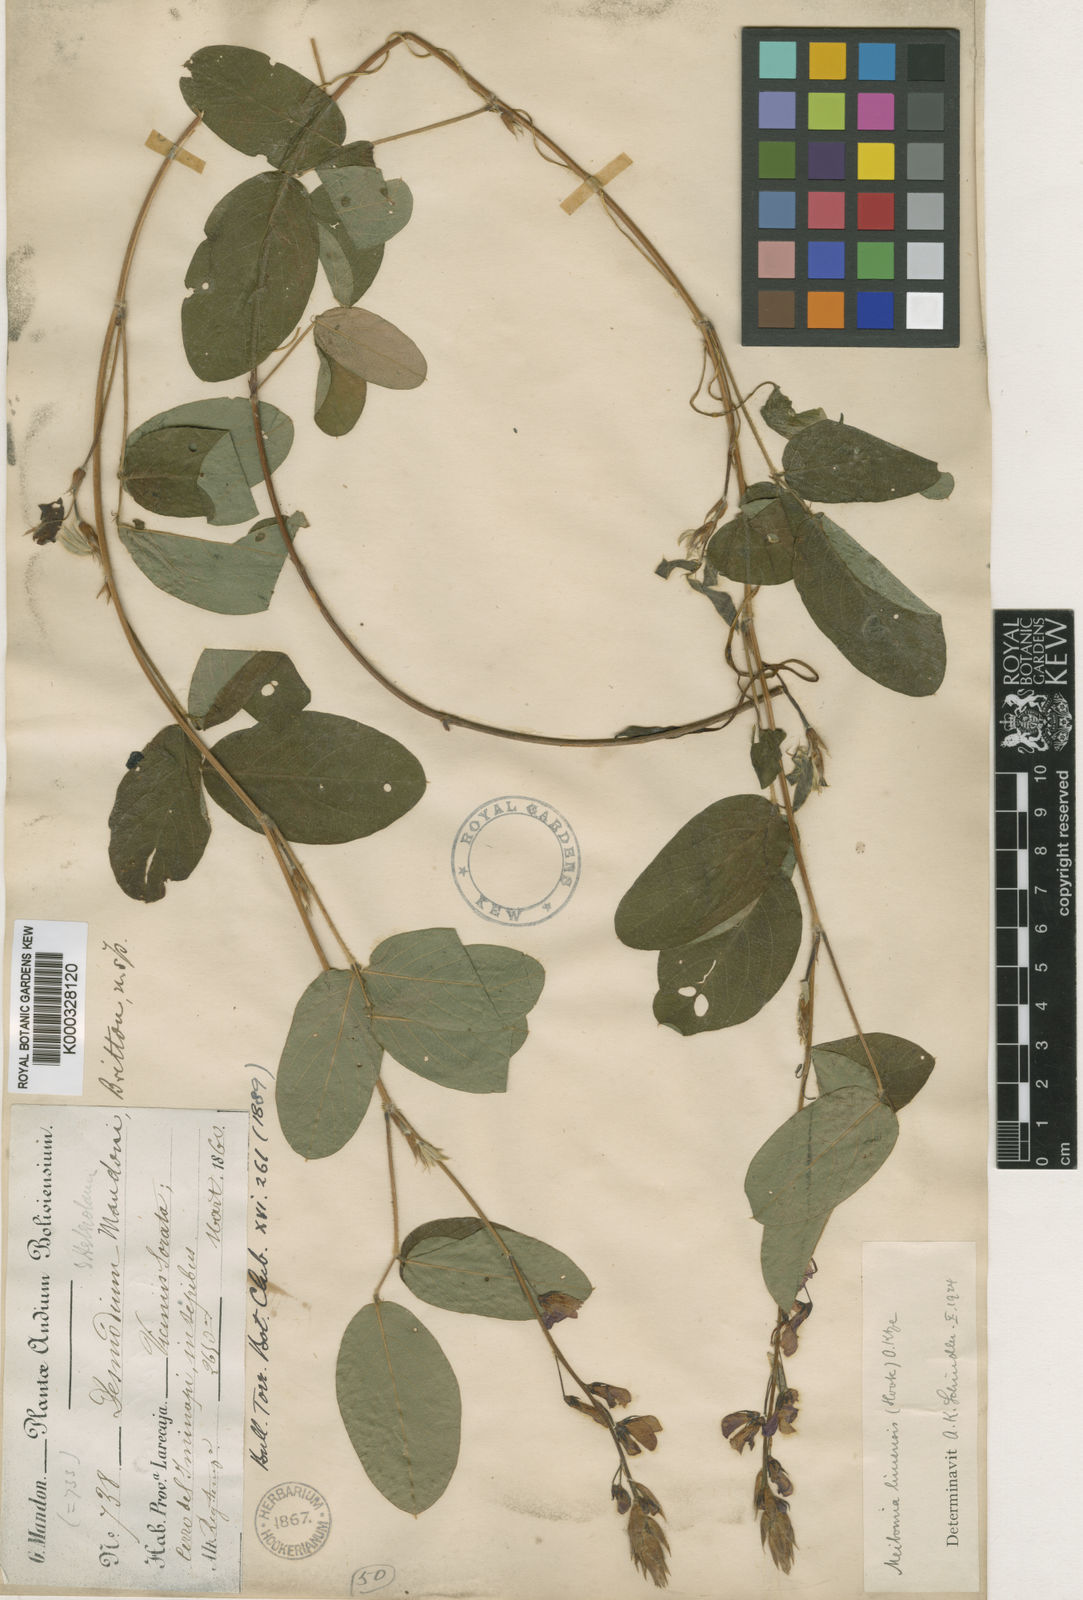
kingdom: Plantae
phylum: Tracheophyta
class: Magnoliopsida
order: Fabales
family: Fabaceae
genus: Desmodium
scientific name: Desmodium limense
